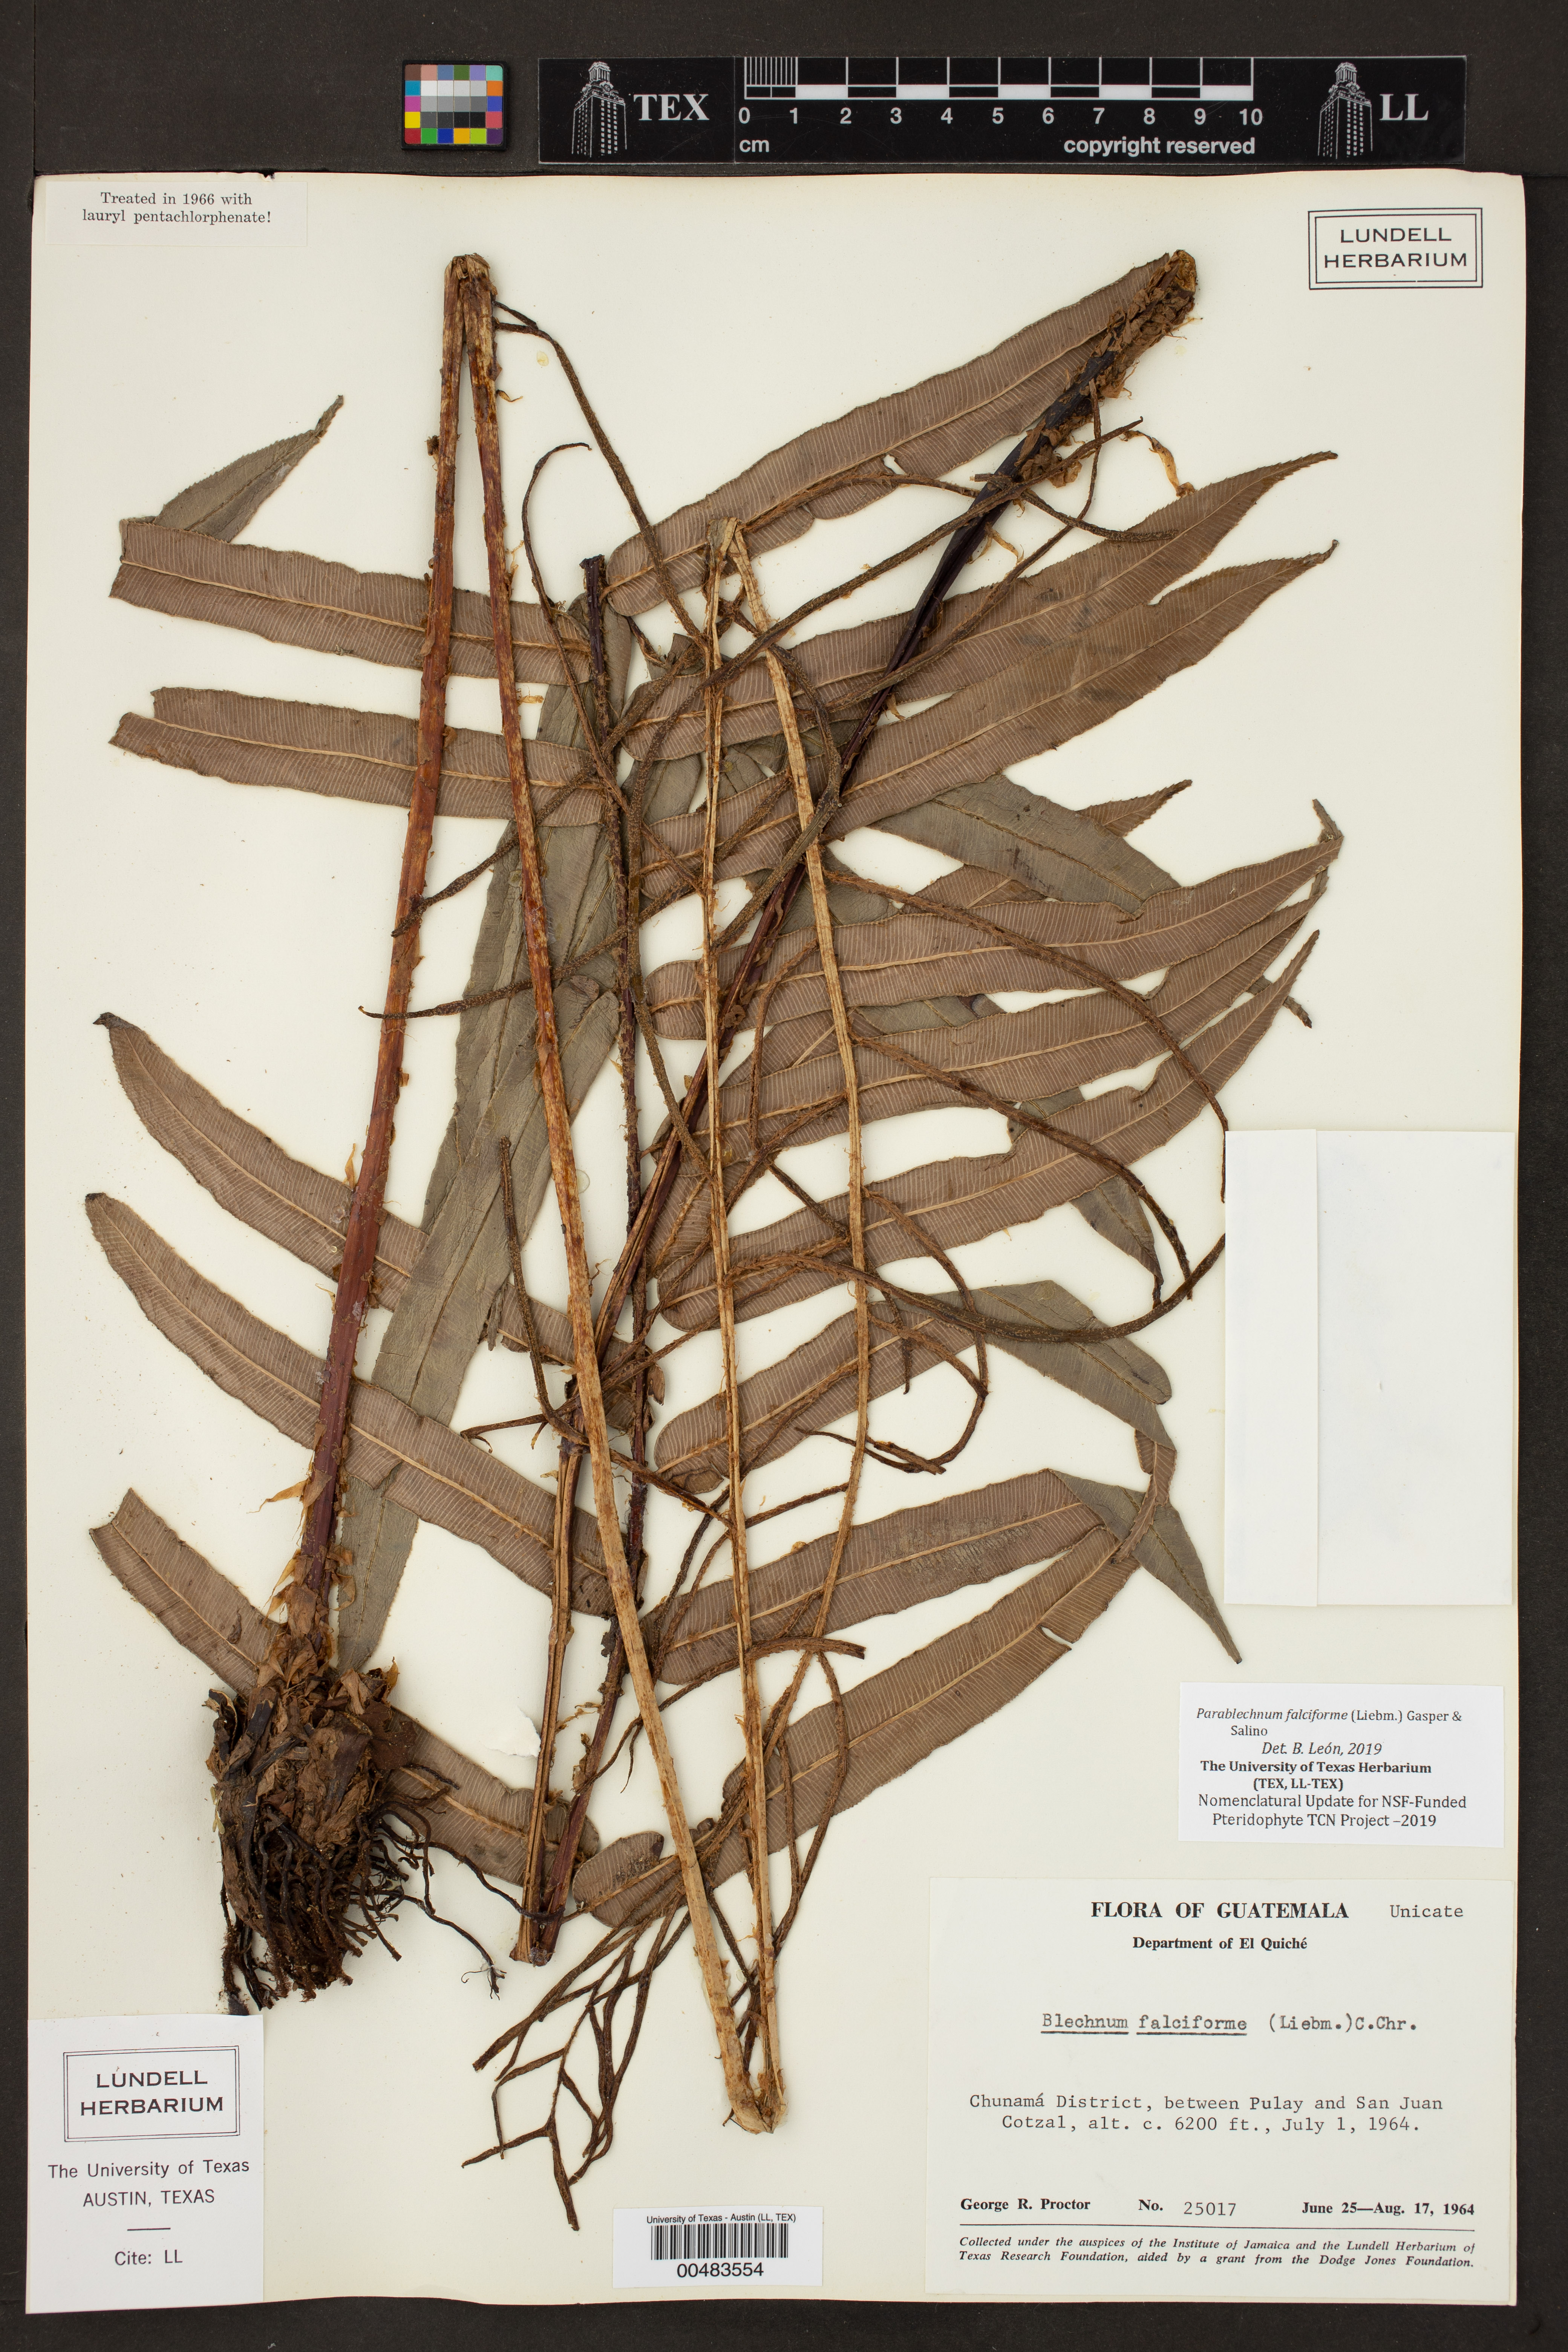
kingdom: Plantae
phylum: Tracheophyta
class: Polypodiopsida
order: Polypodiales
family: Blechnaceae
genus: Parablechnum
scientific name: Parablechnum falciforme
